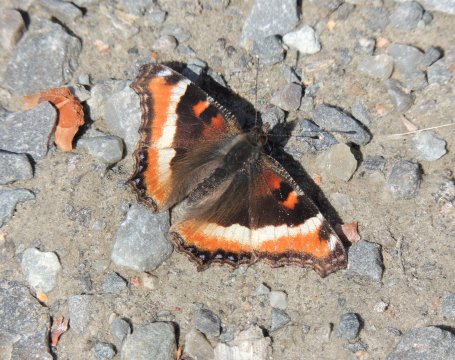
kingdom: Animalia
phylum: Arthropoda
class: Insecta
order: Lepidoptera
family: Nymphalidae
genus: Aglais
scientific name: Aglais milberti
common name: Milbert's Tortoiseshell
